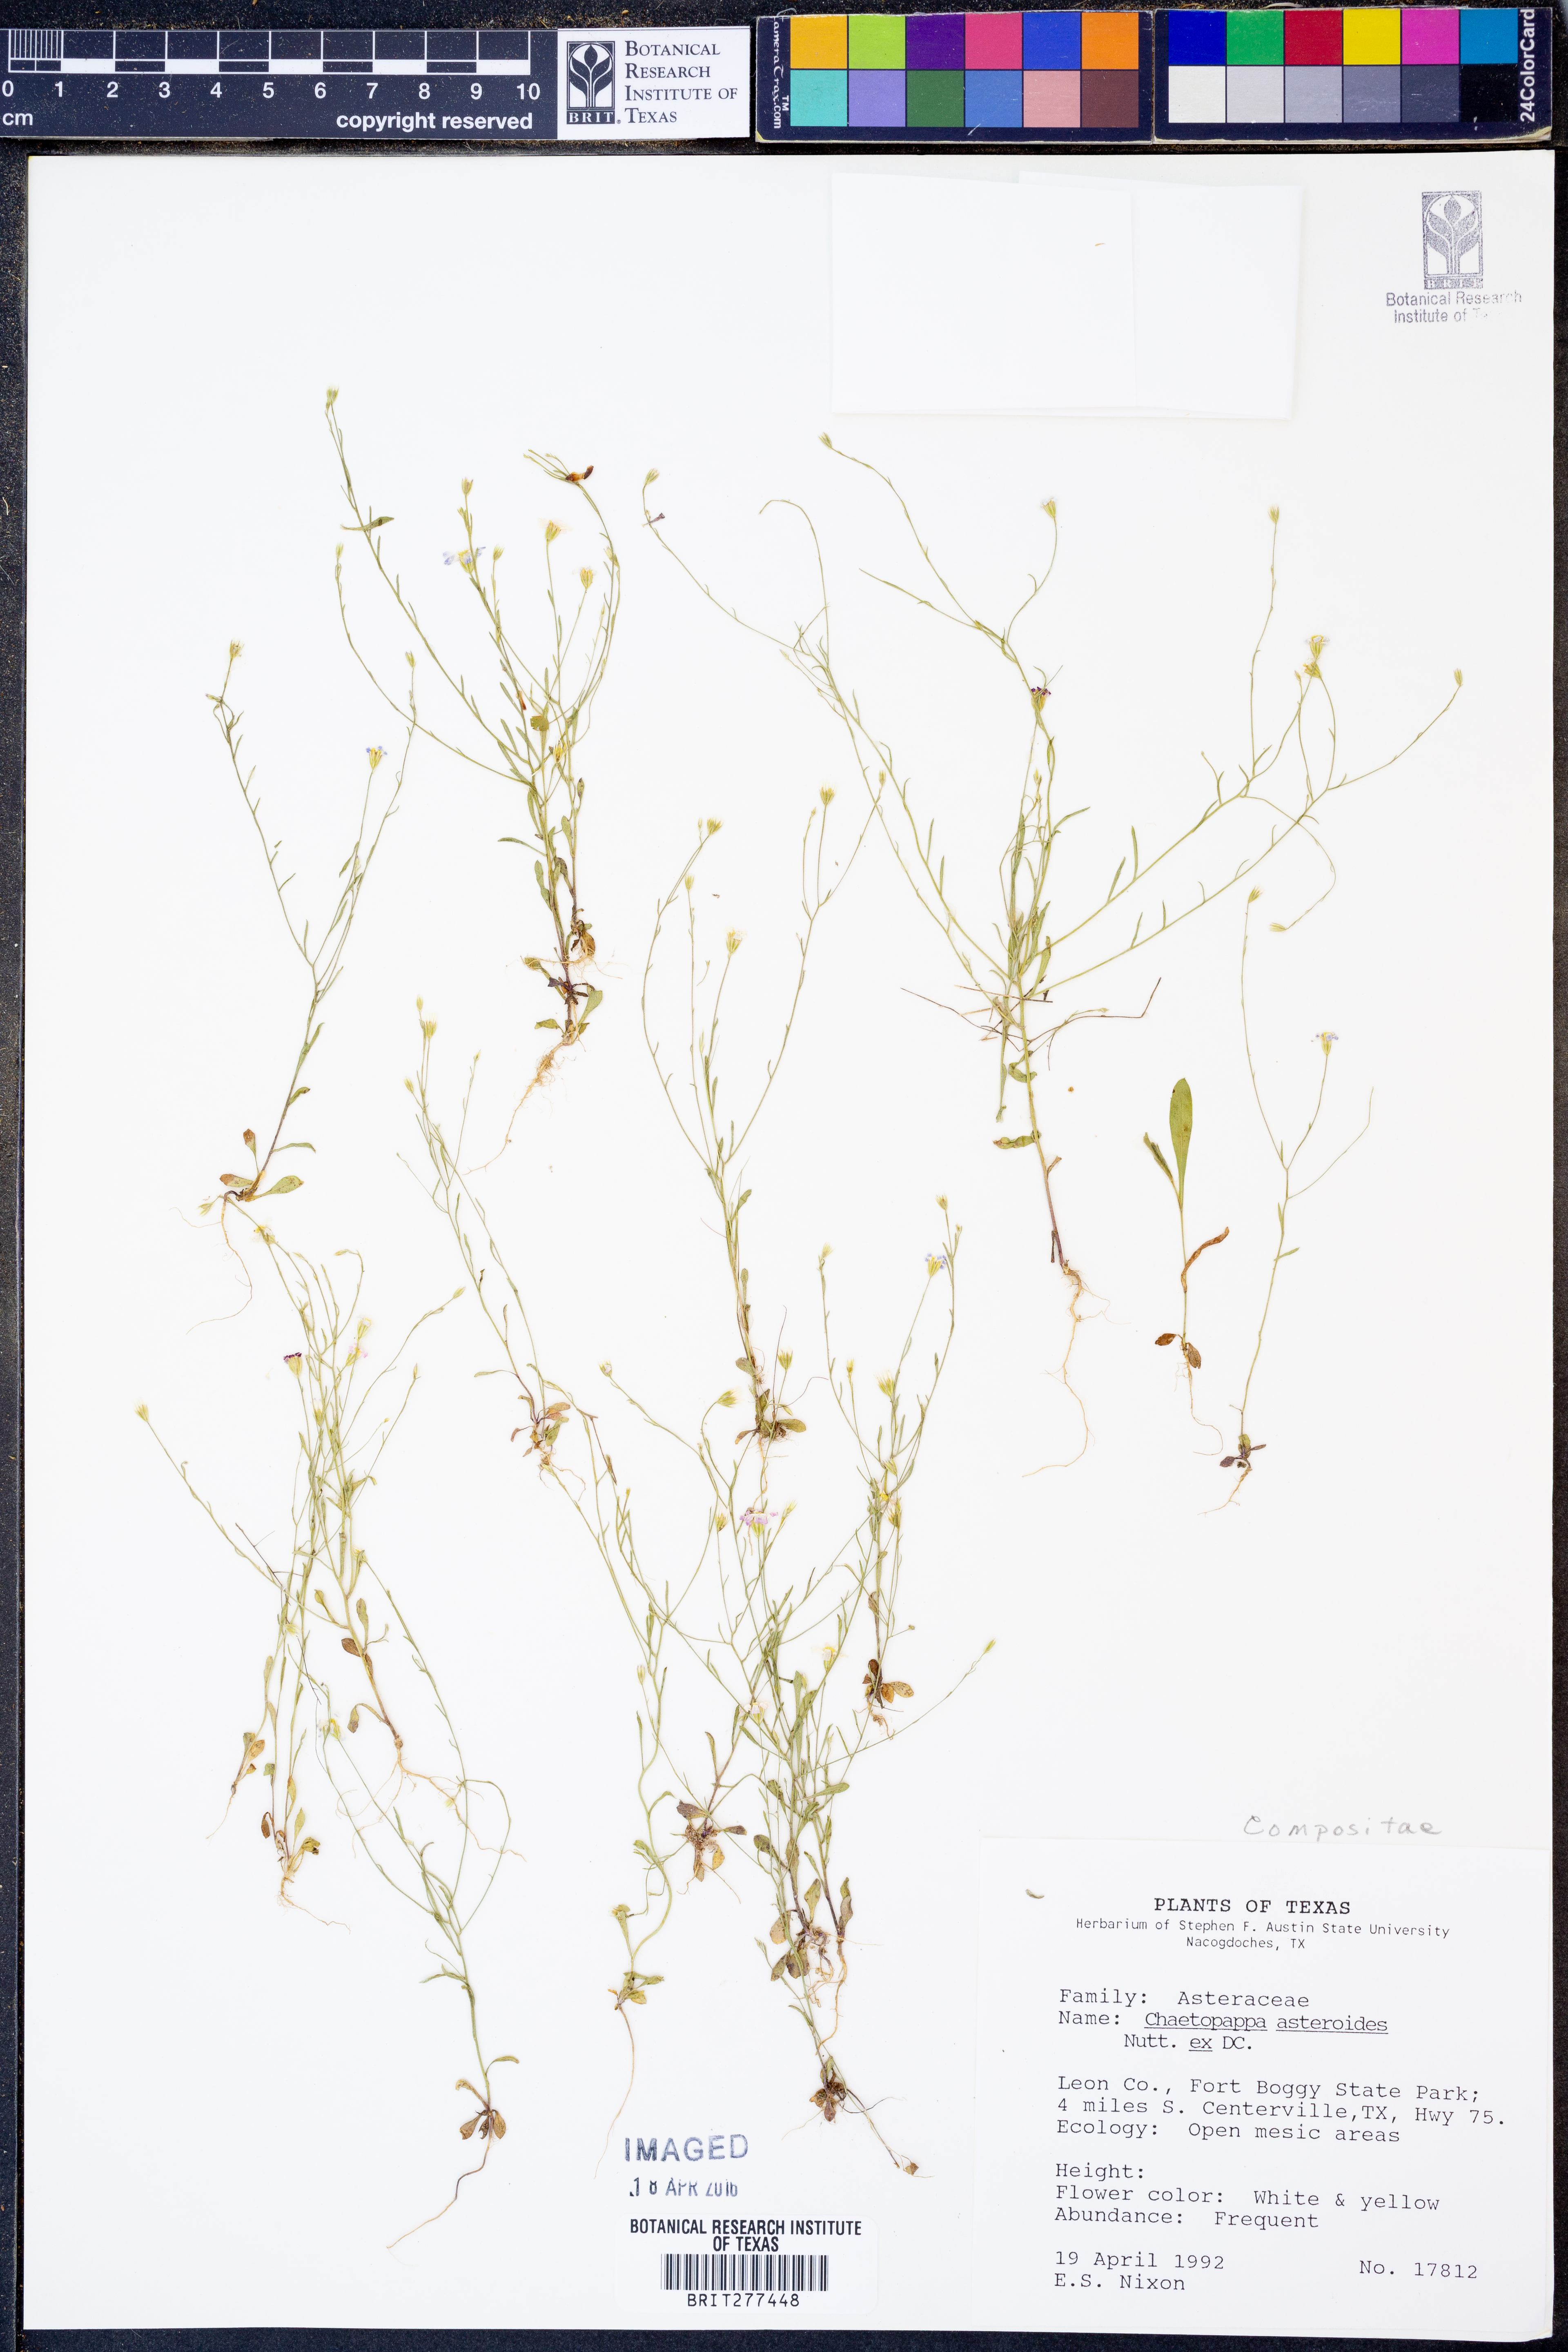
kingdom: Plantae
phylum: Tracheophyta
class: Magnoliopsida
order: Asterales
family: Asteraceae
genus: Chaetopappa
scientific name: Chaetopappa asteroides
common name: Tiny lazy daisy
